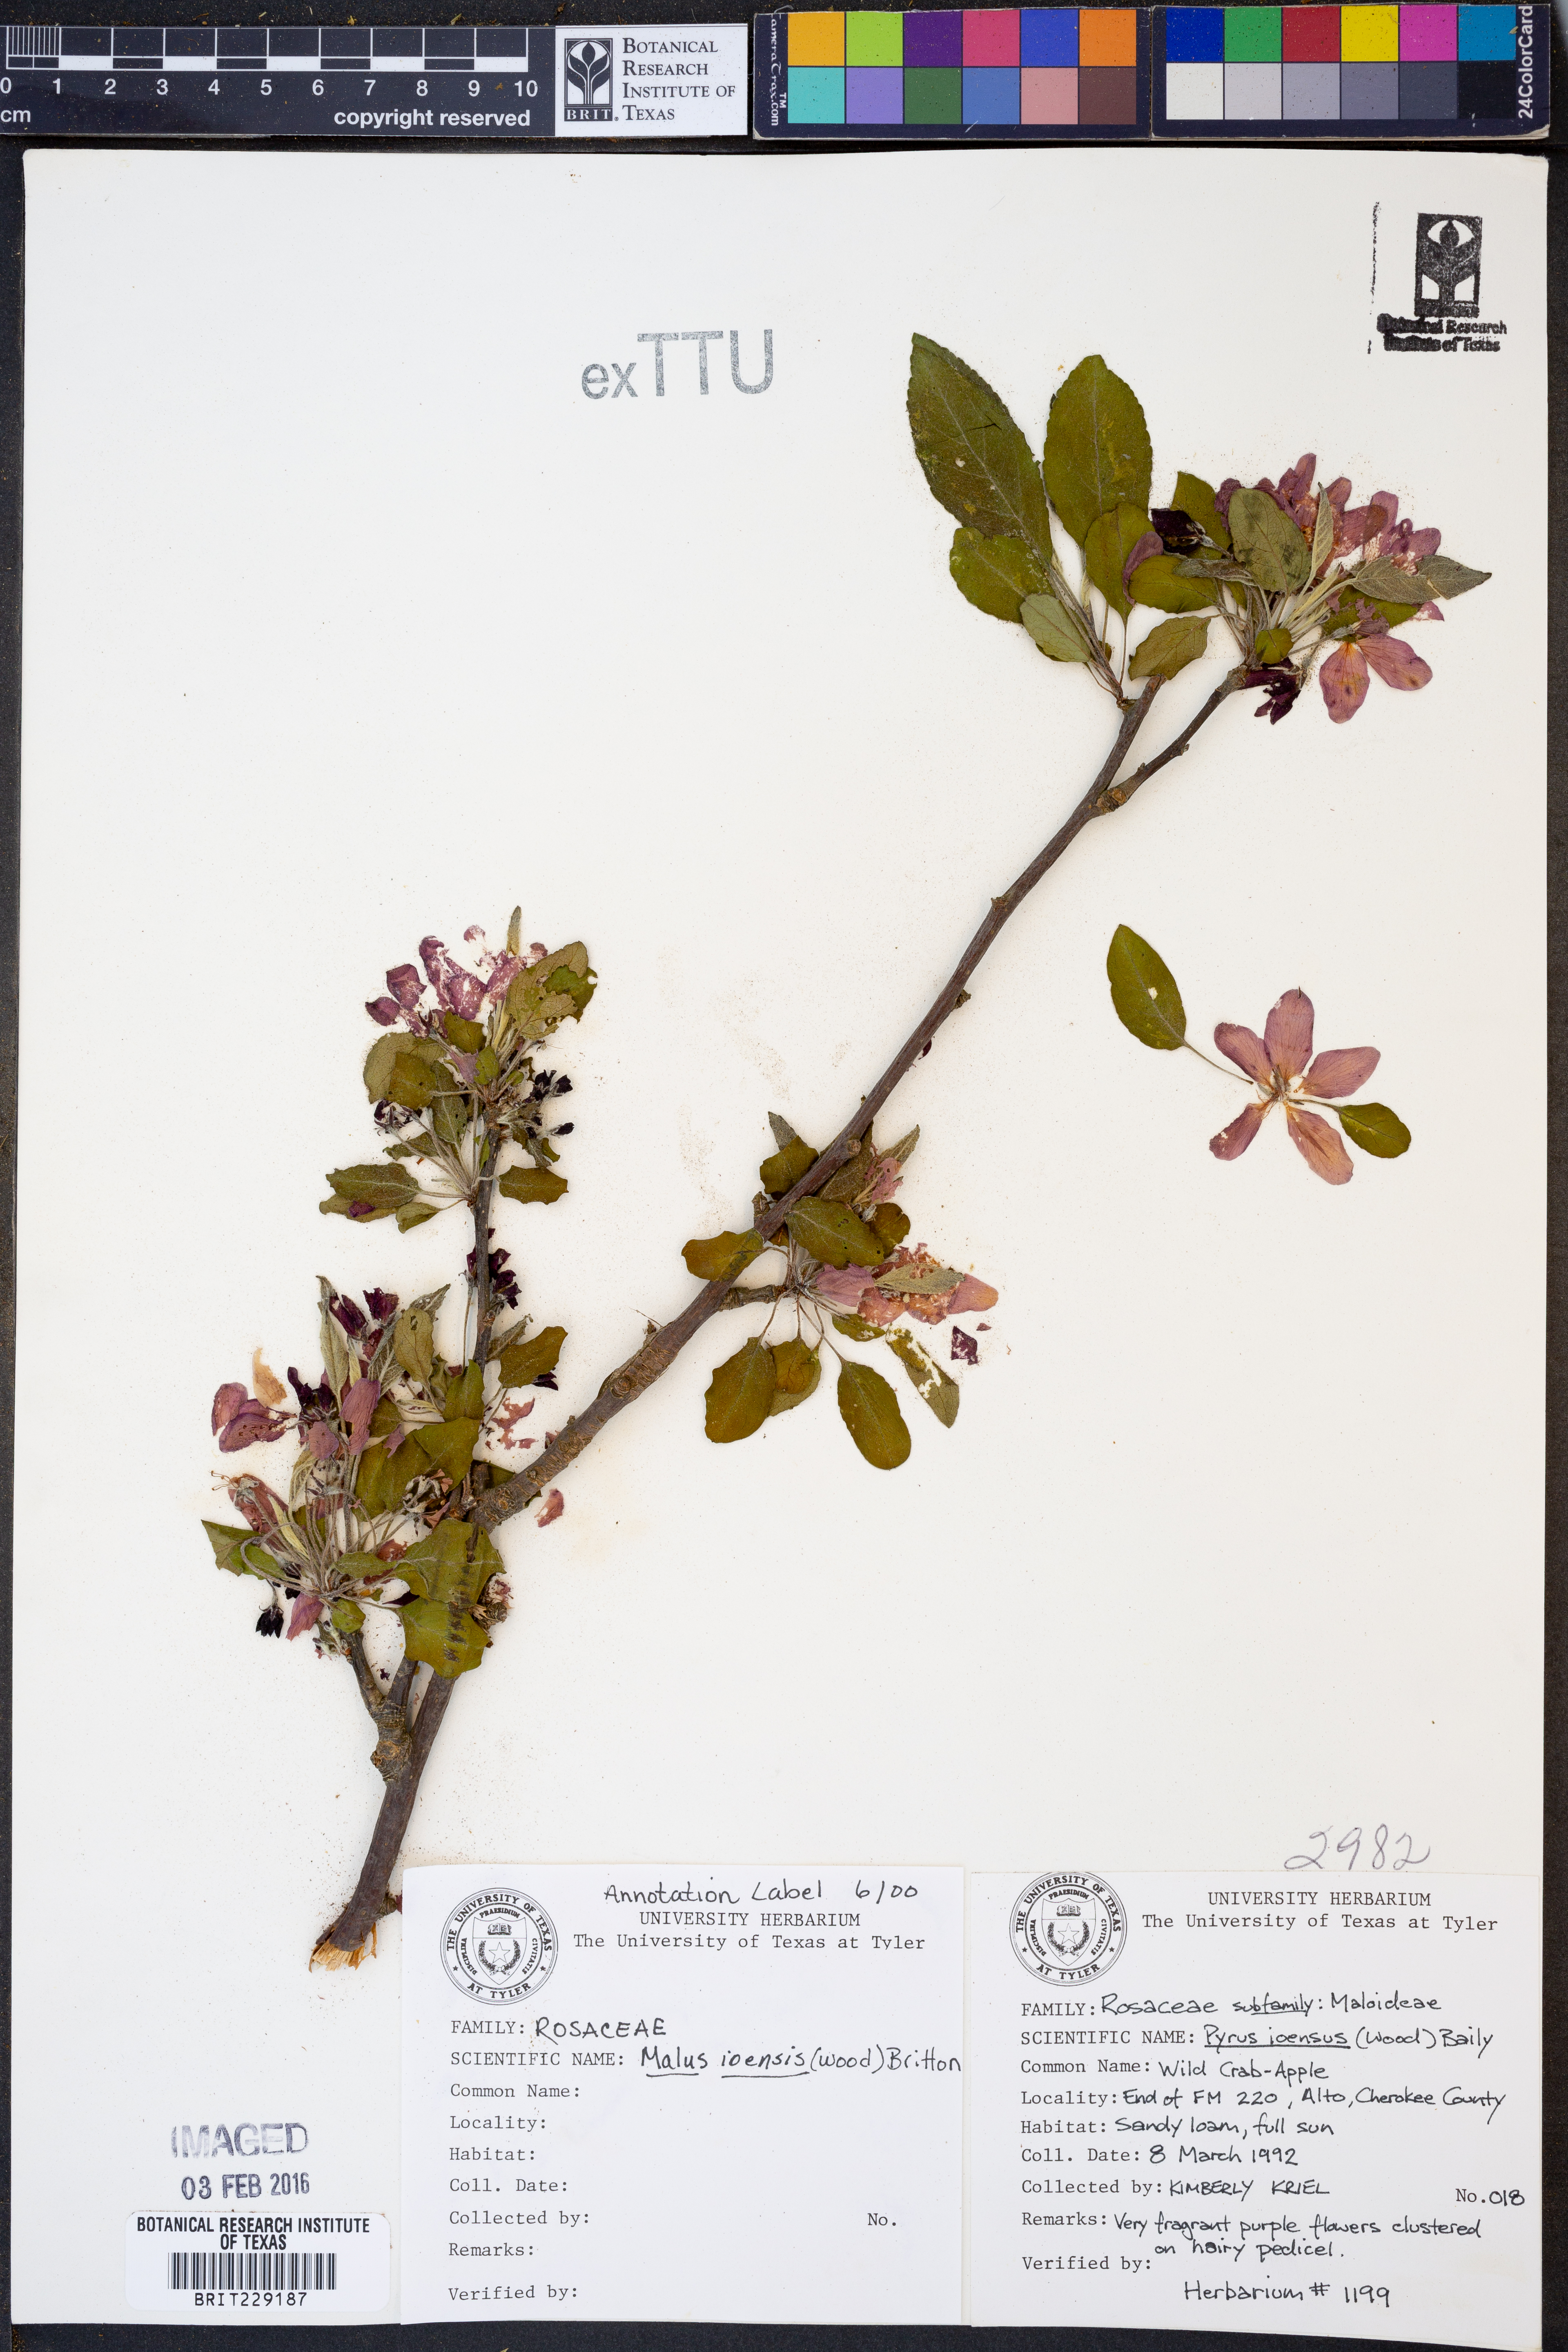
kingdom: Plantae
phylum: Tracheophyta
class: Magnoliopsida
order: Rosales
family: Rosaceae
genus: Malus
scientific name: Malus ioensis
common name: Iowa crab apple
